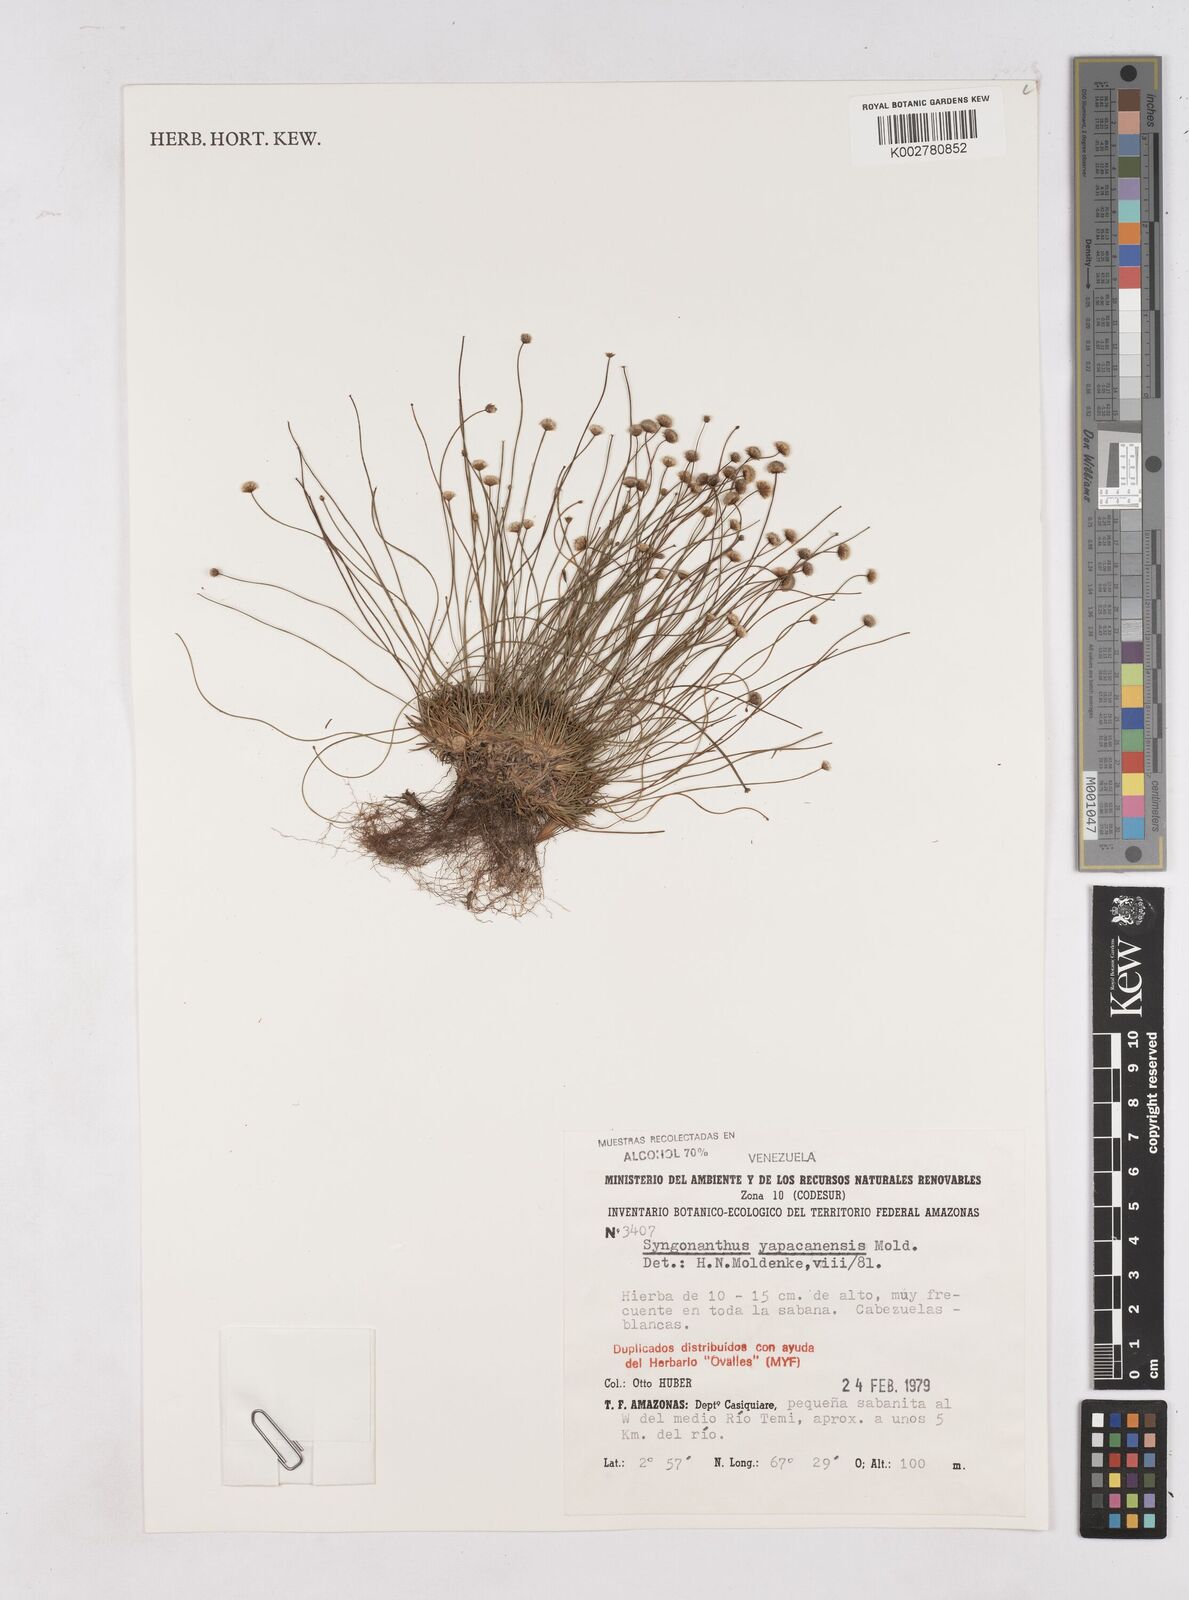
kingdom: Plantae
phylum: Tracheophyta
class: Liliopsida
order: Poales
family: Eriocaulaceae
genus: Paepalanthus
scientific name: Paepalanthus yapacanensis
